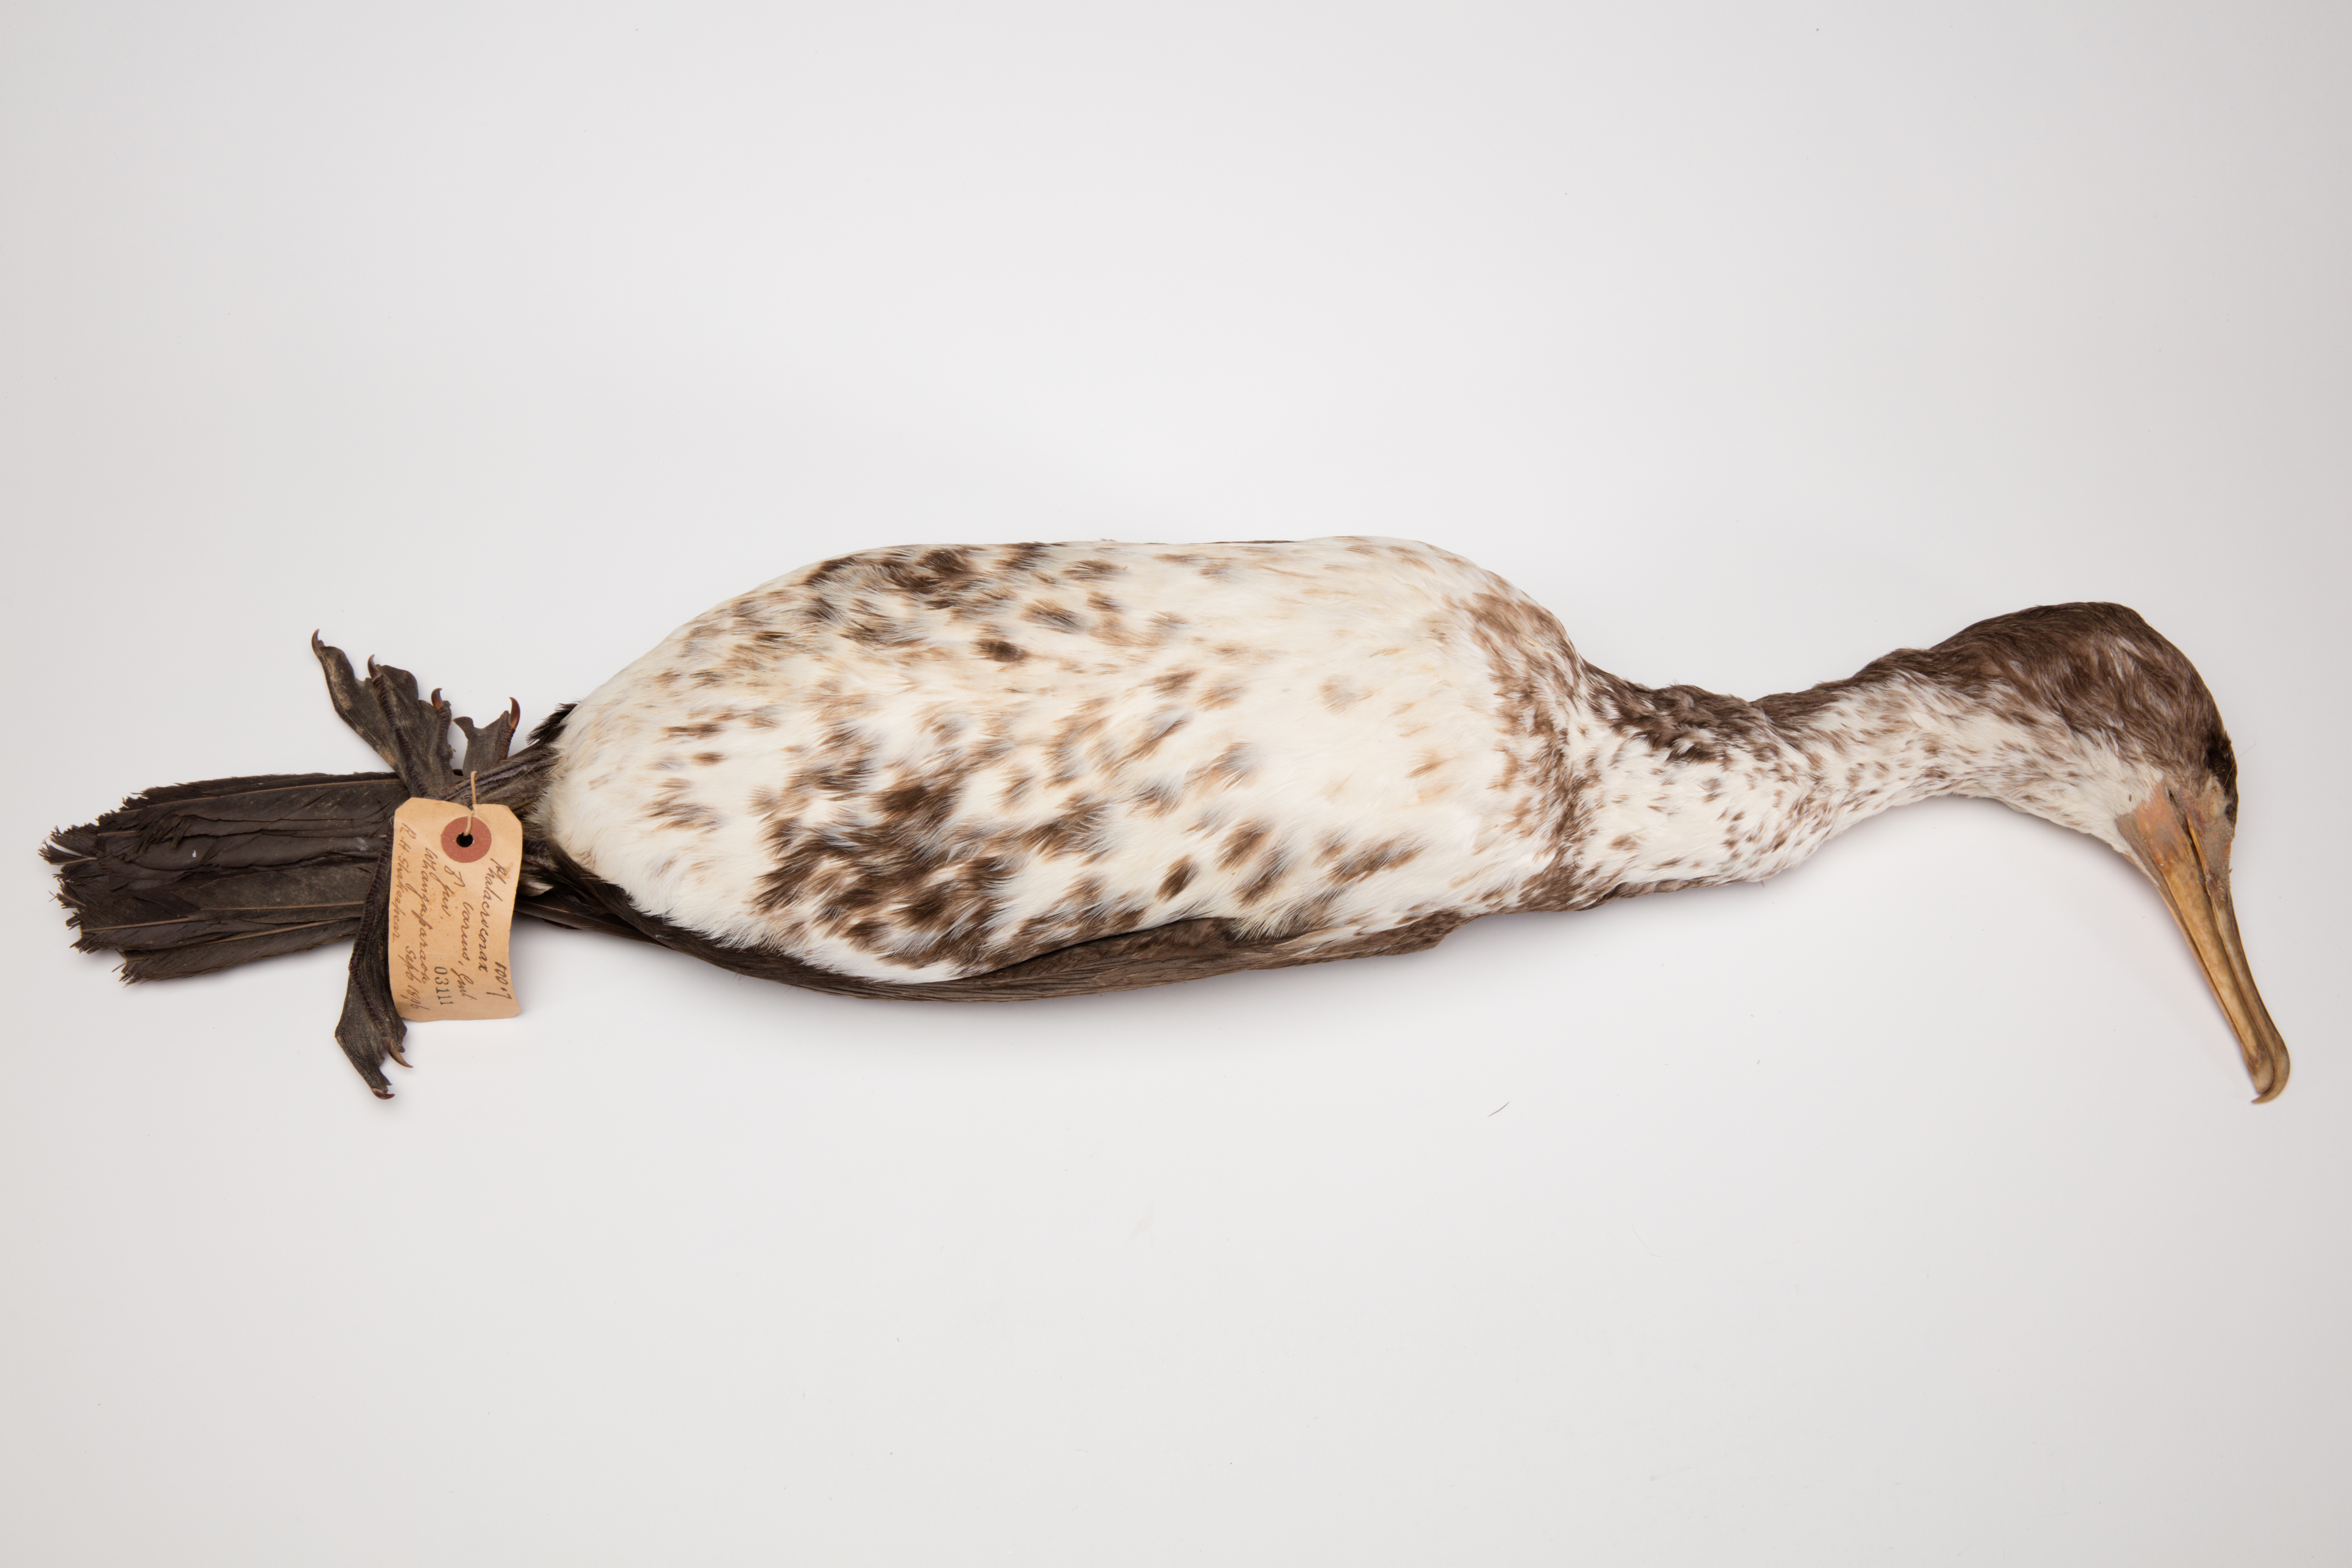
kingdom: Animalia
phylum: Chordata
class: Aves
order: Suliformes
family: Phalacrocoracidae
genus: Phalacrocorax
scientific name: Phalacrocorax varius
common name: Pied cormorant
